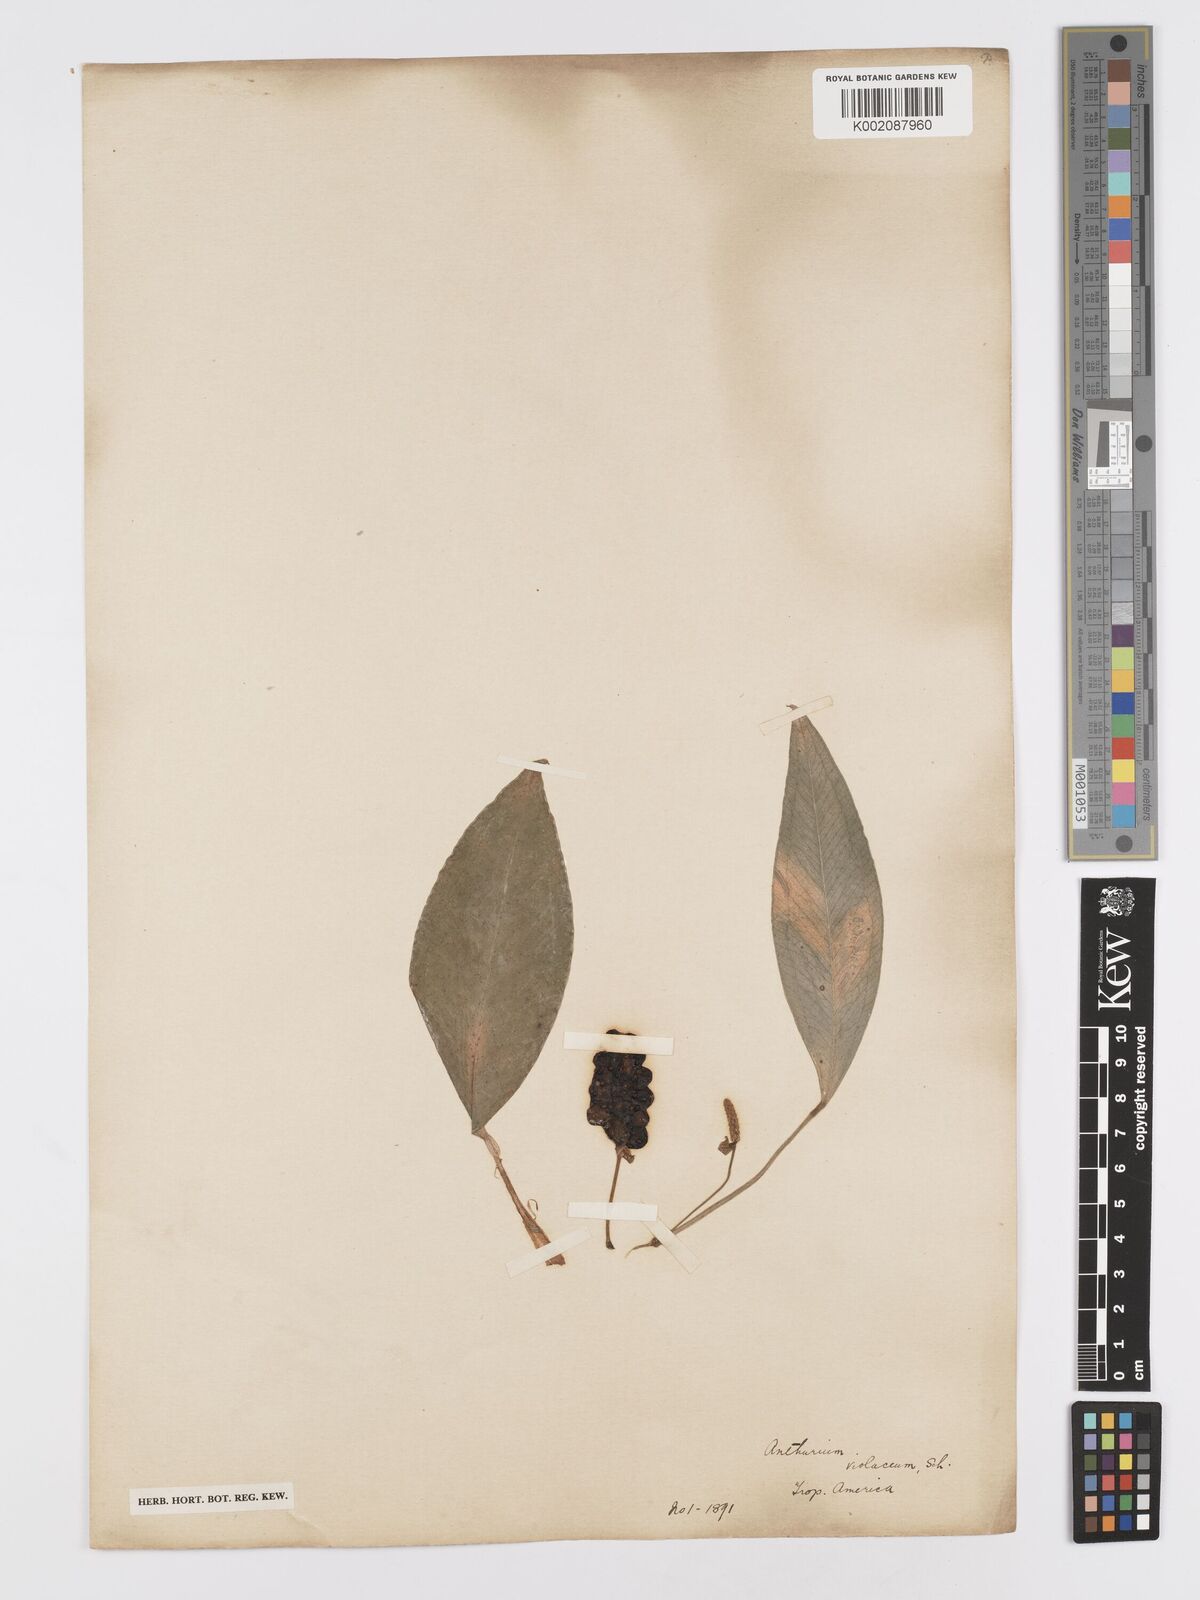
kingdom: Plantae
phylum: Tracheophyta
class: Liliopsida
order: Alismatales
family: Araceae
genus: Anthurium
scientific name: Anthurium scandens
